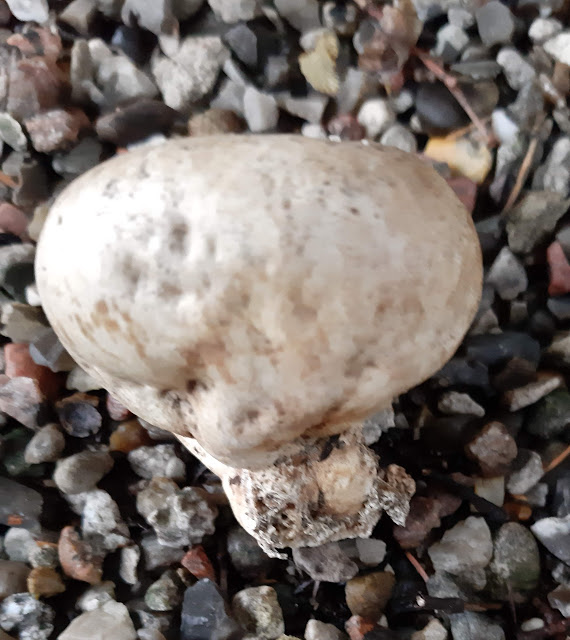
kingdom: Fungi
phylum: Basidiomycota
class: Agaricomycetes
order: Boletales
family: Sclerodermataceae
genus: Scleroderma
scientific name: Scleroderma bovista
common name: bovist-bruskbold
